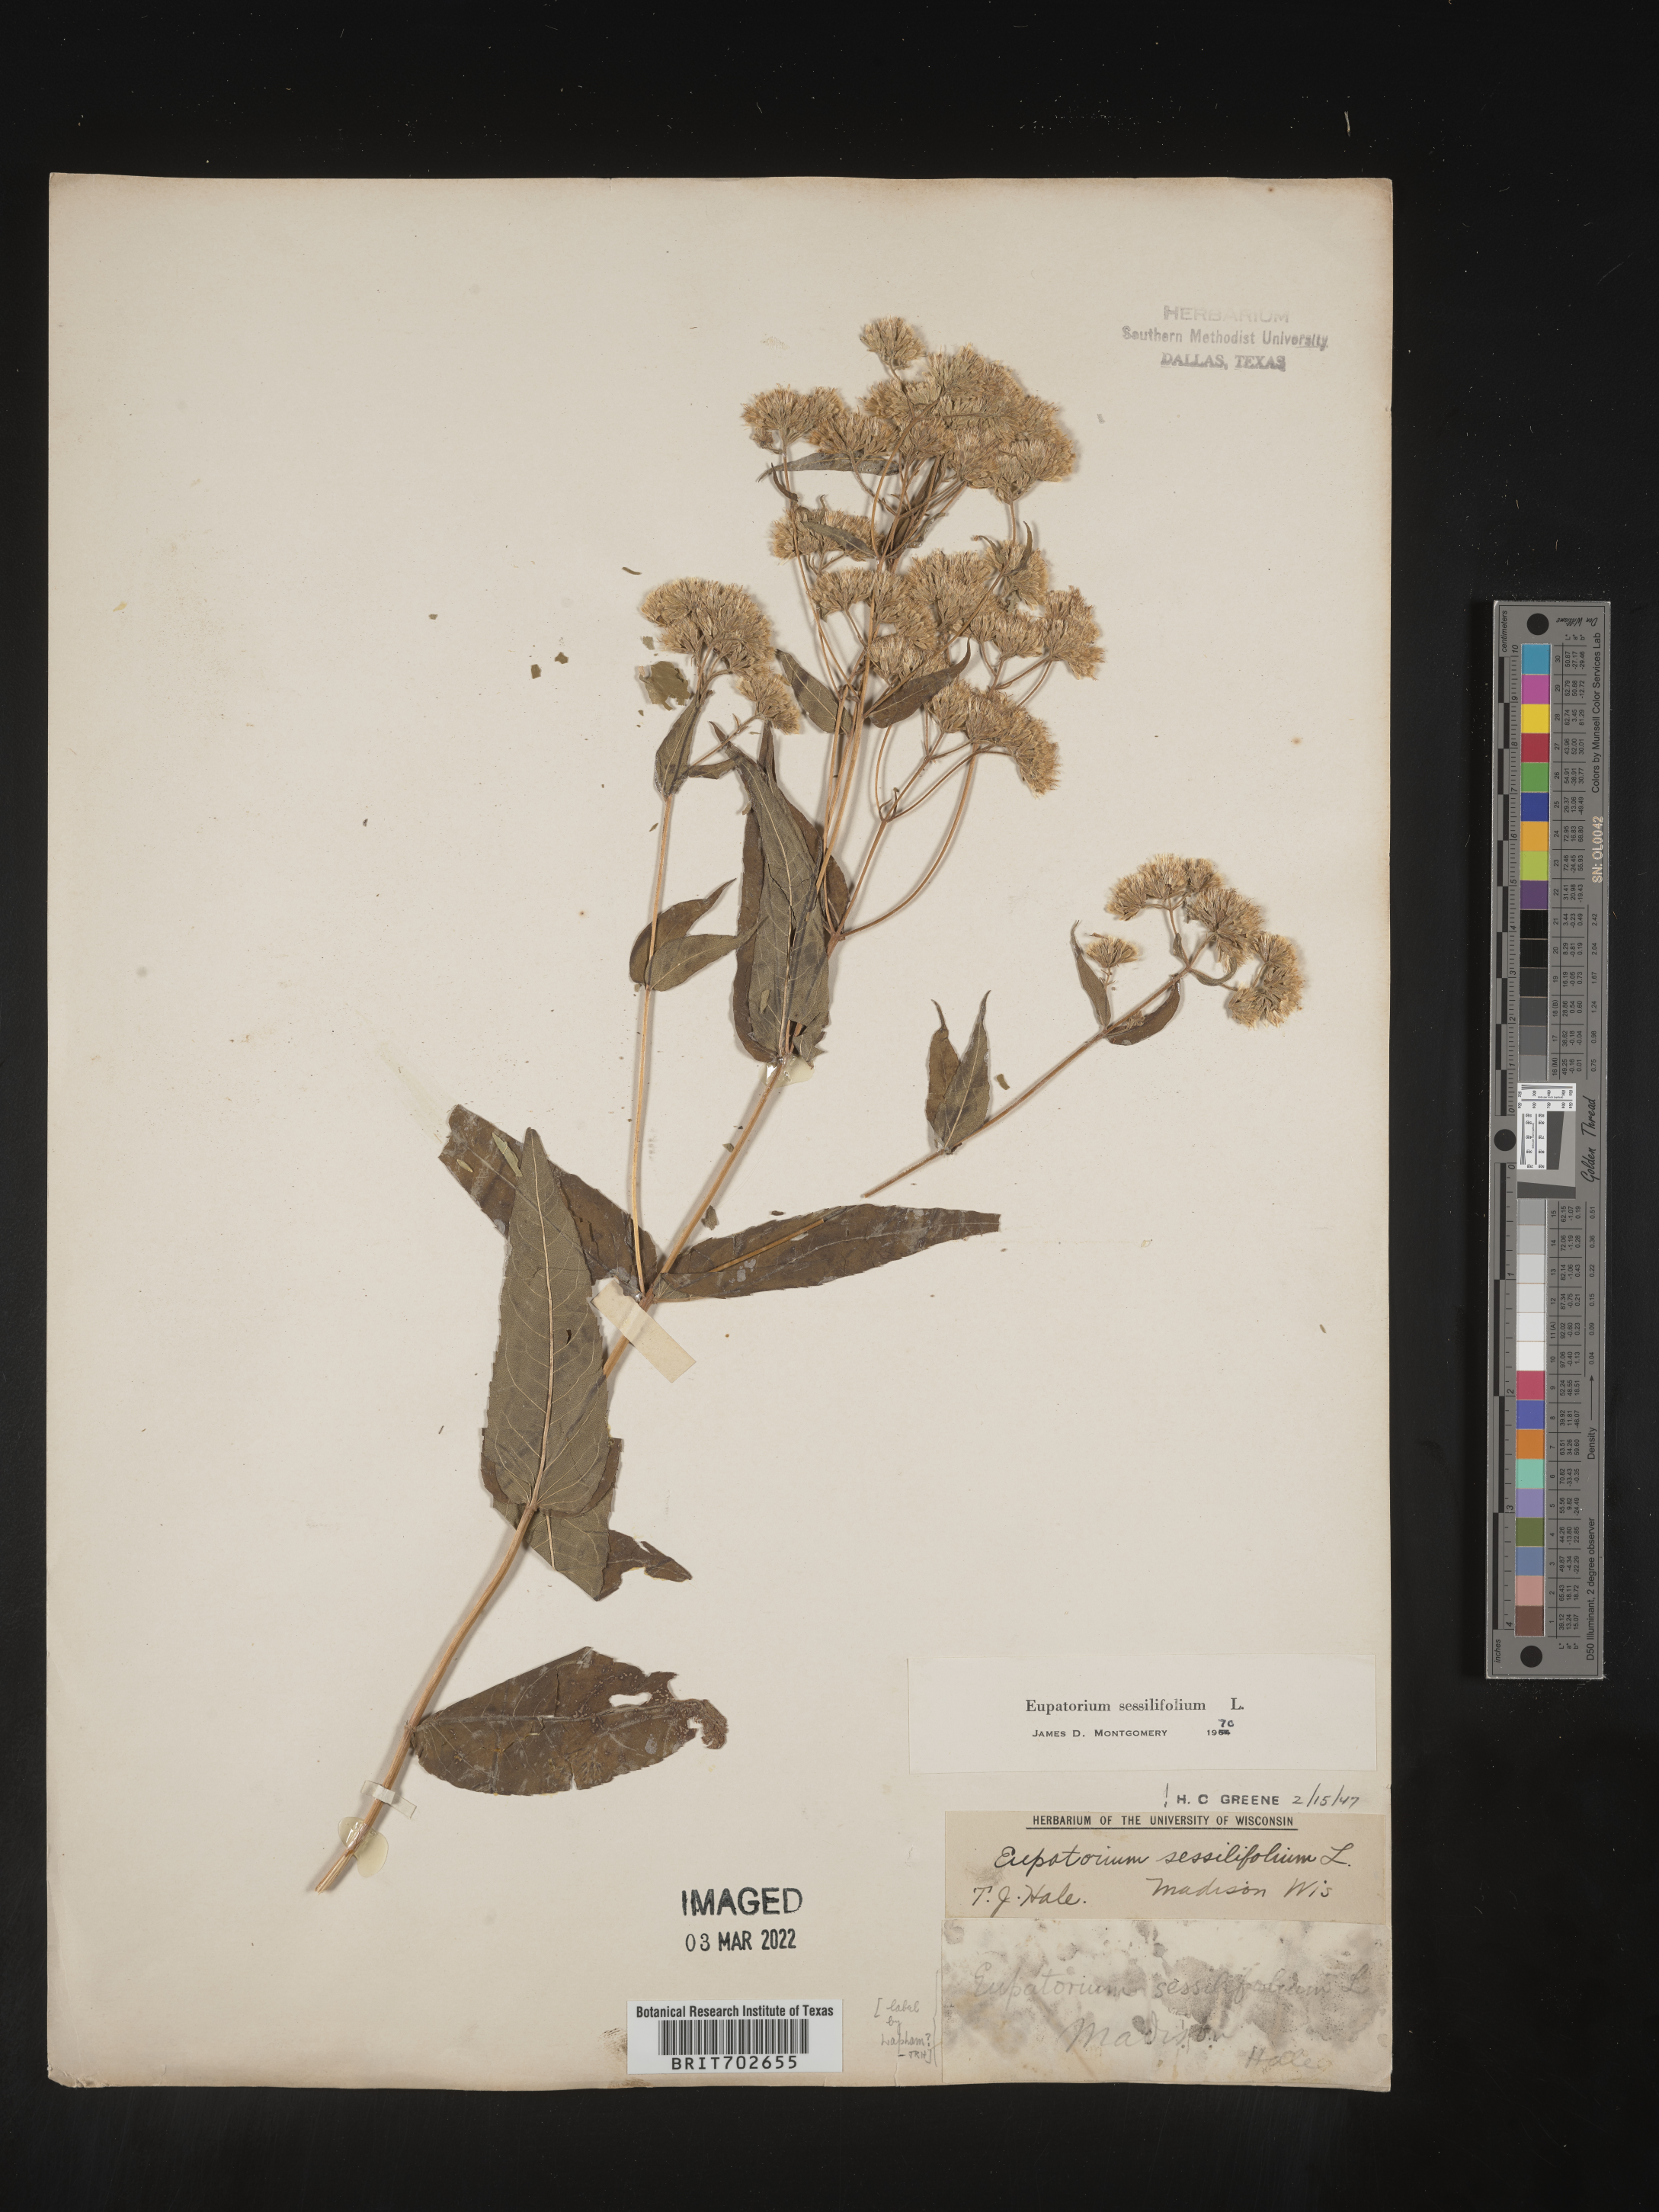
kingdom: Plantae
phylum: Tracheophyta
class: Magnoliopsida
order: Asterales
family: Asteraceae
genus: Eupatorium
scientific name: Eupatorium sessilifolium
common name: Upland boneset
